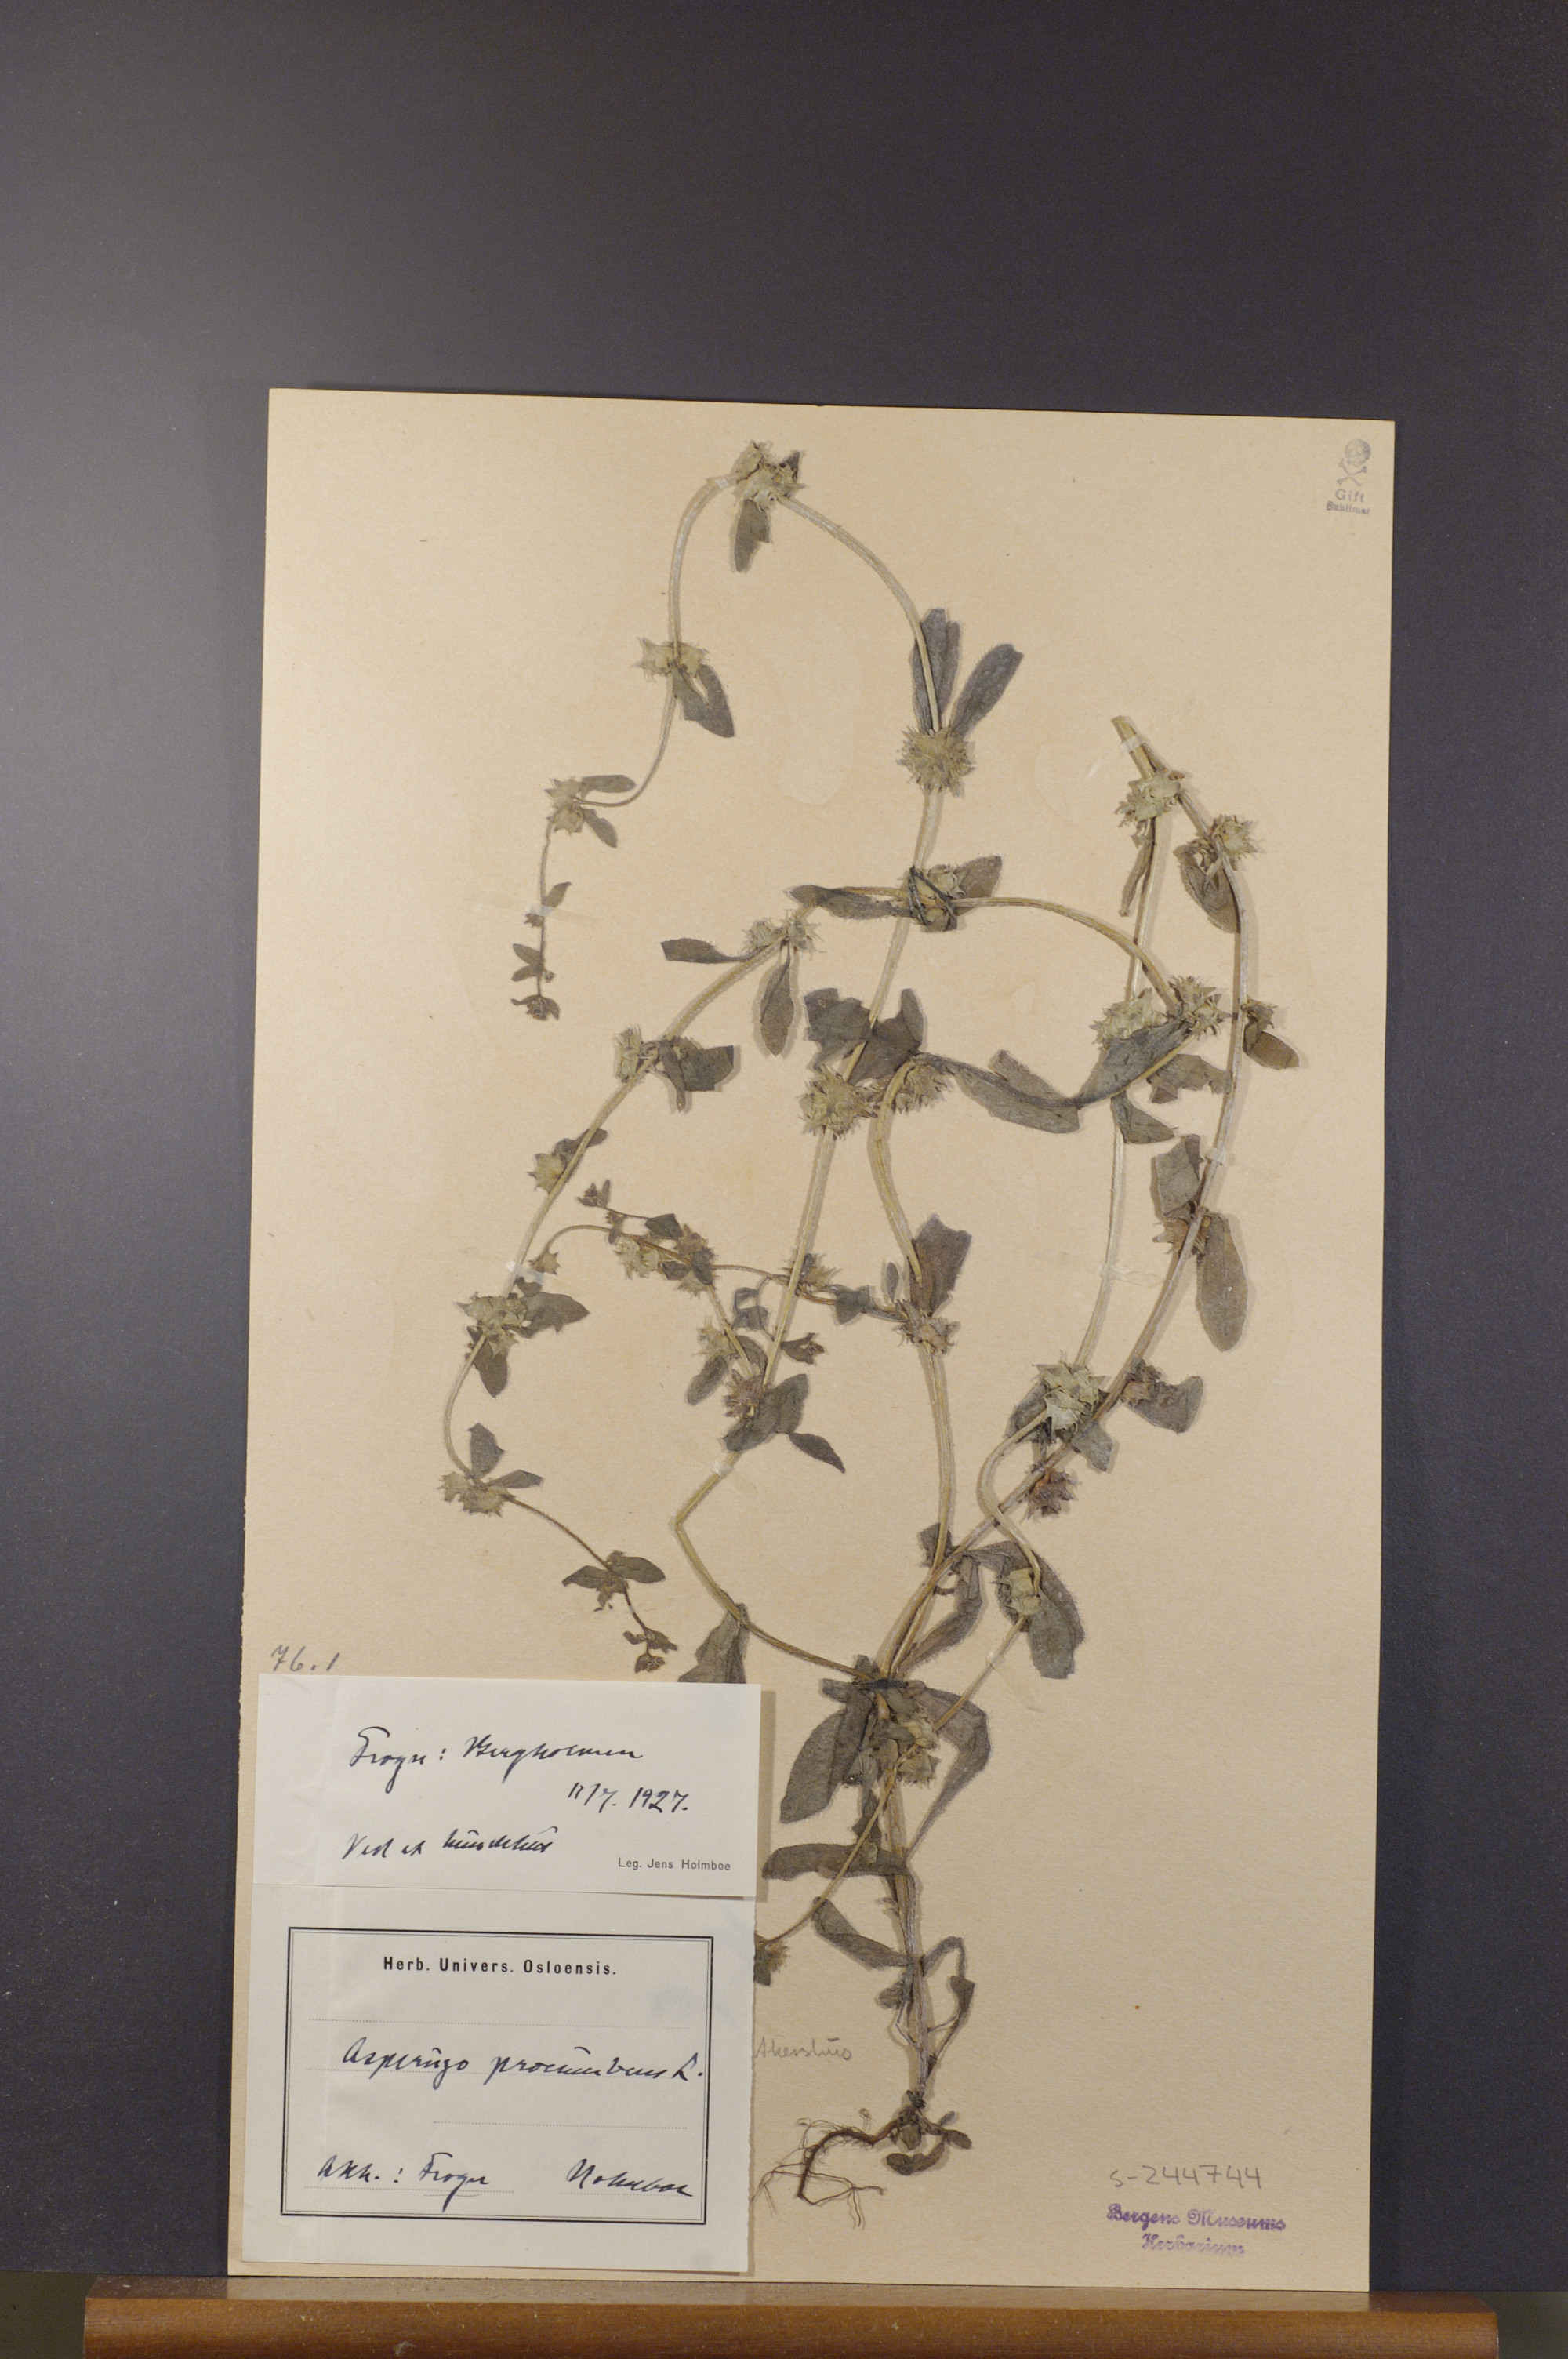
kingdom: Plantae
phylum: Tracheophyta
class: Magnoliopsida
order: Boraginales
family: Boraginaceae
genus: Asperugo
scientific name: Asperugo procumbens
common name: Madwort
